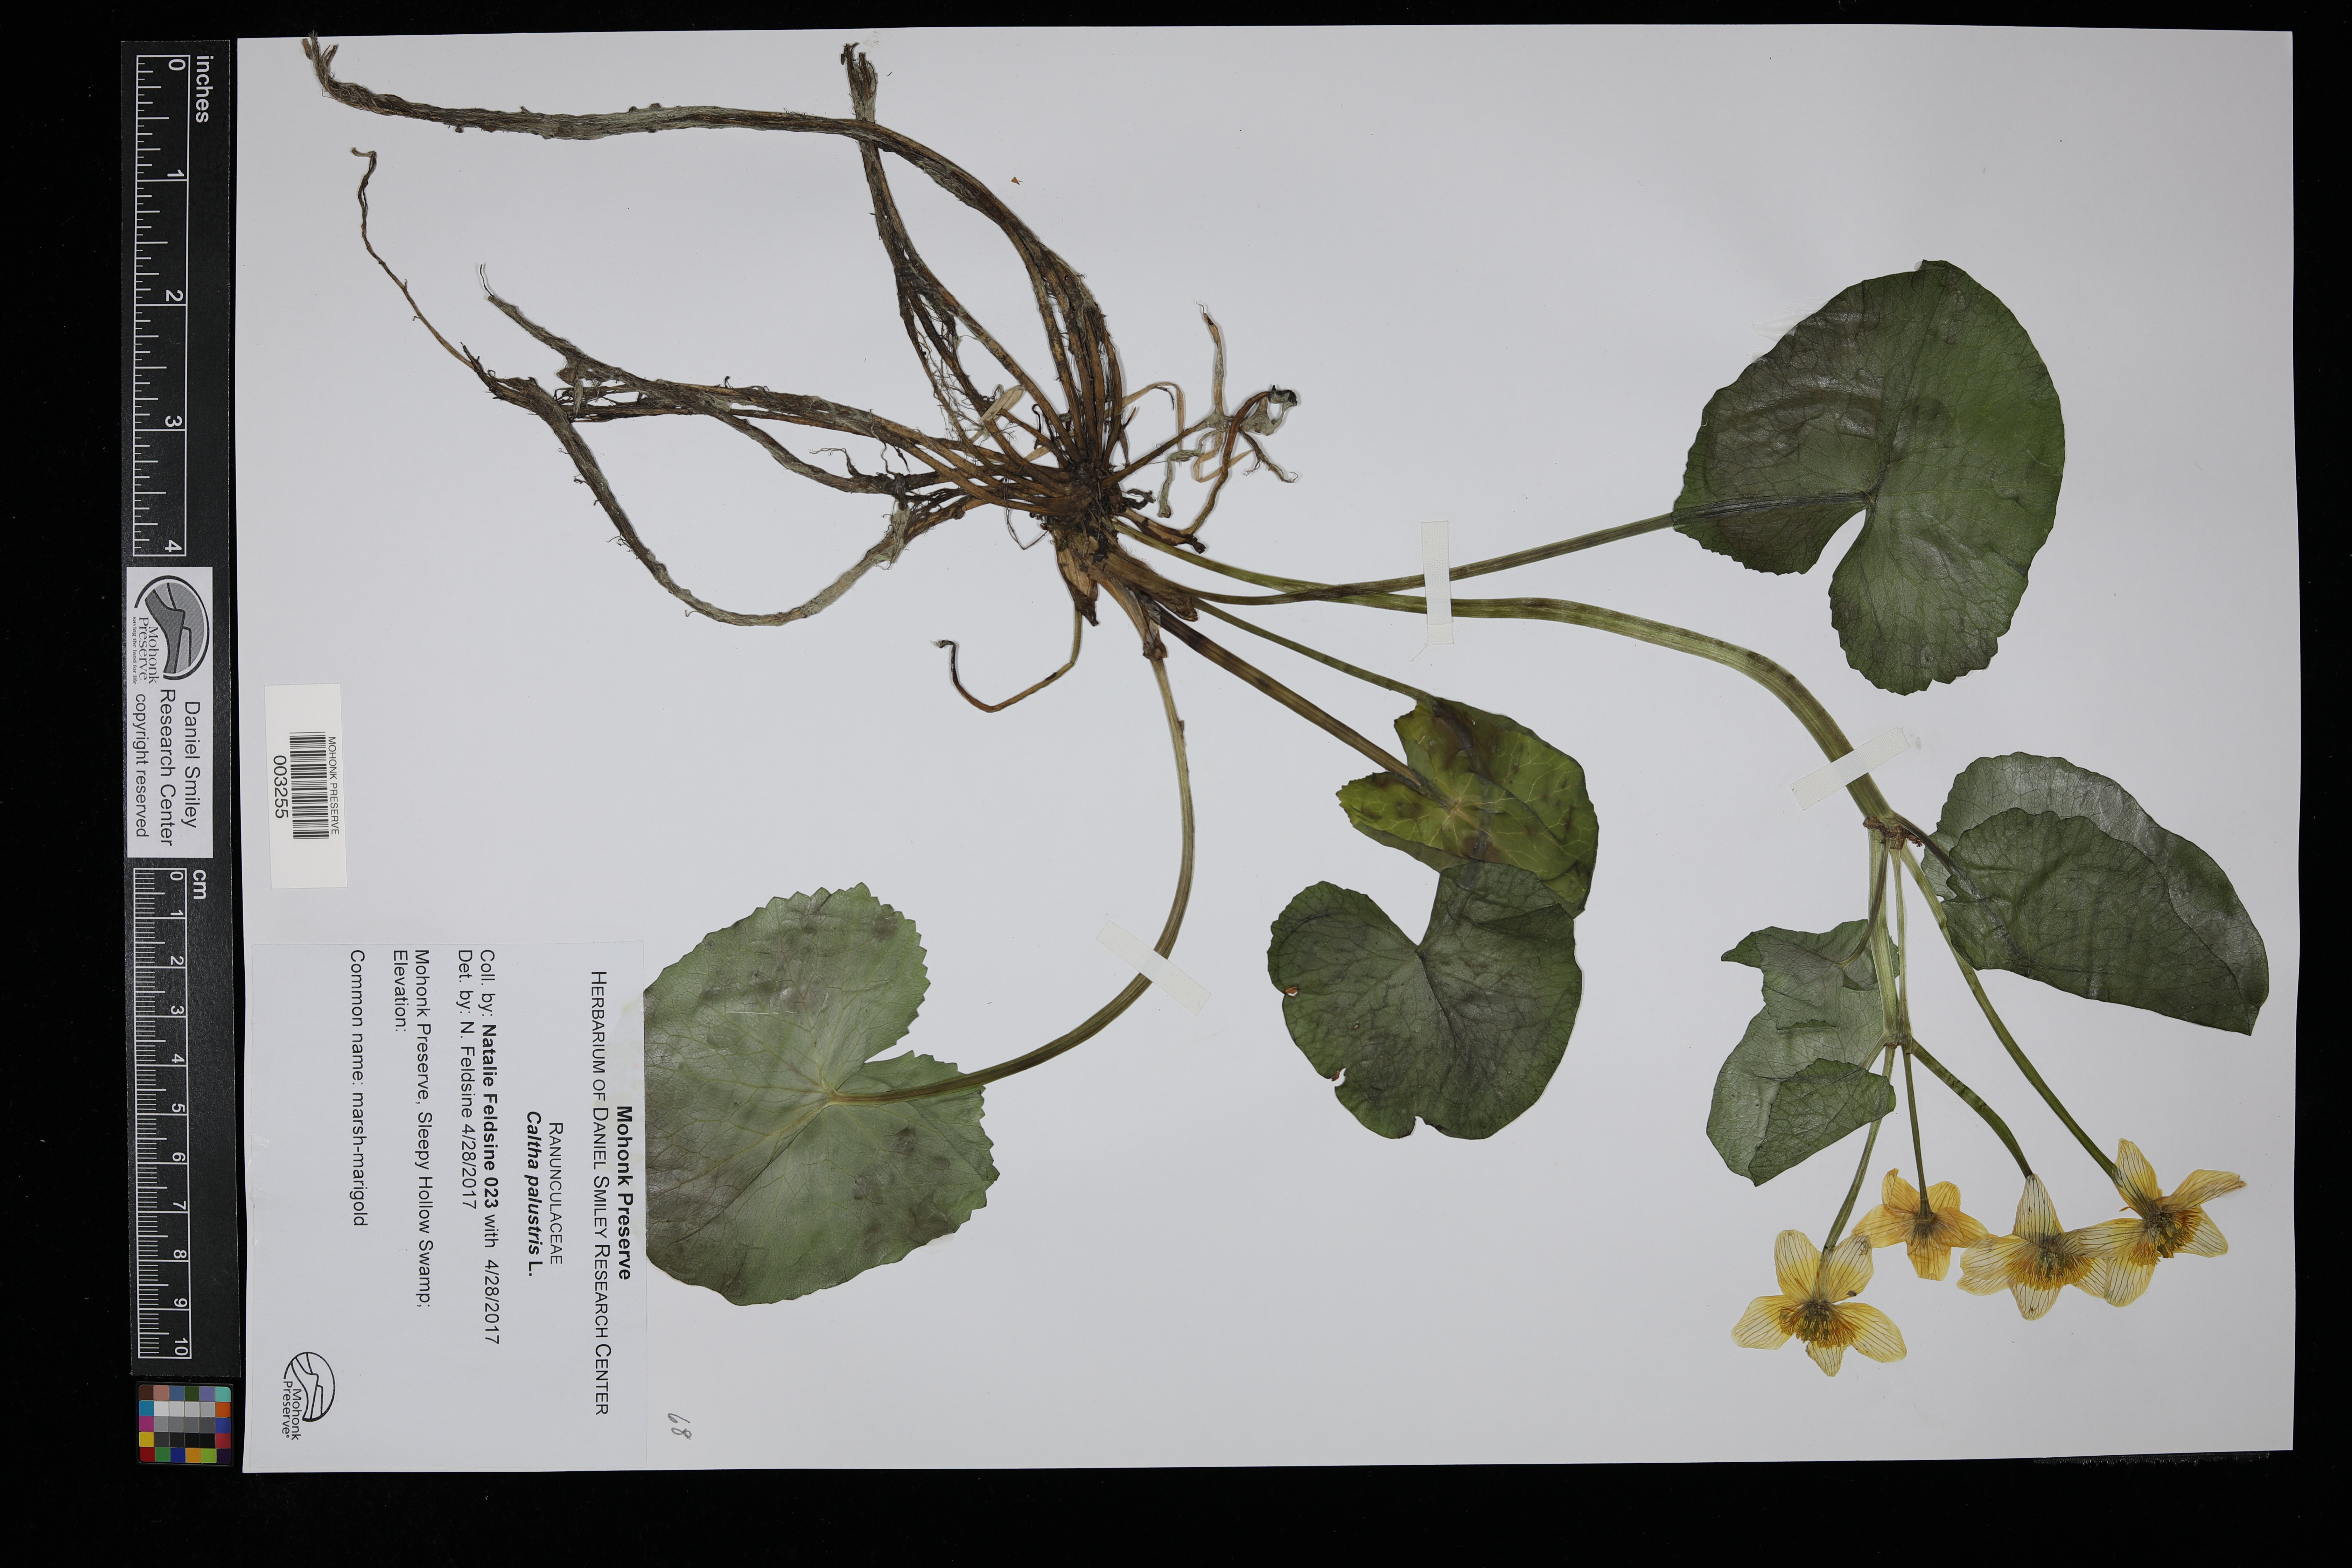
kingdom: Plantae
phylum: Tracheophyta
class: Magnoliopsida
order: Ranunculales
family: Ranunculaceae
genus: Caltha
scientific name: Caltha palustris
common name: Marsh marigold
